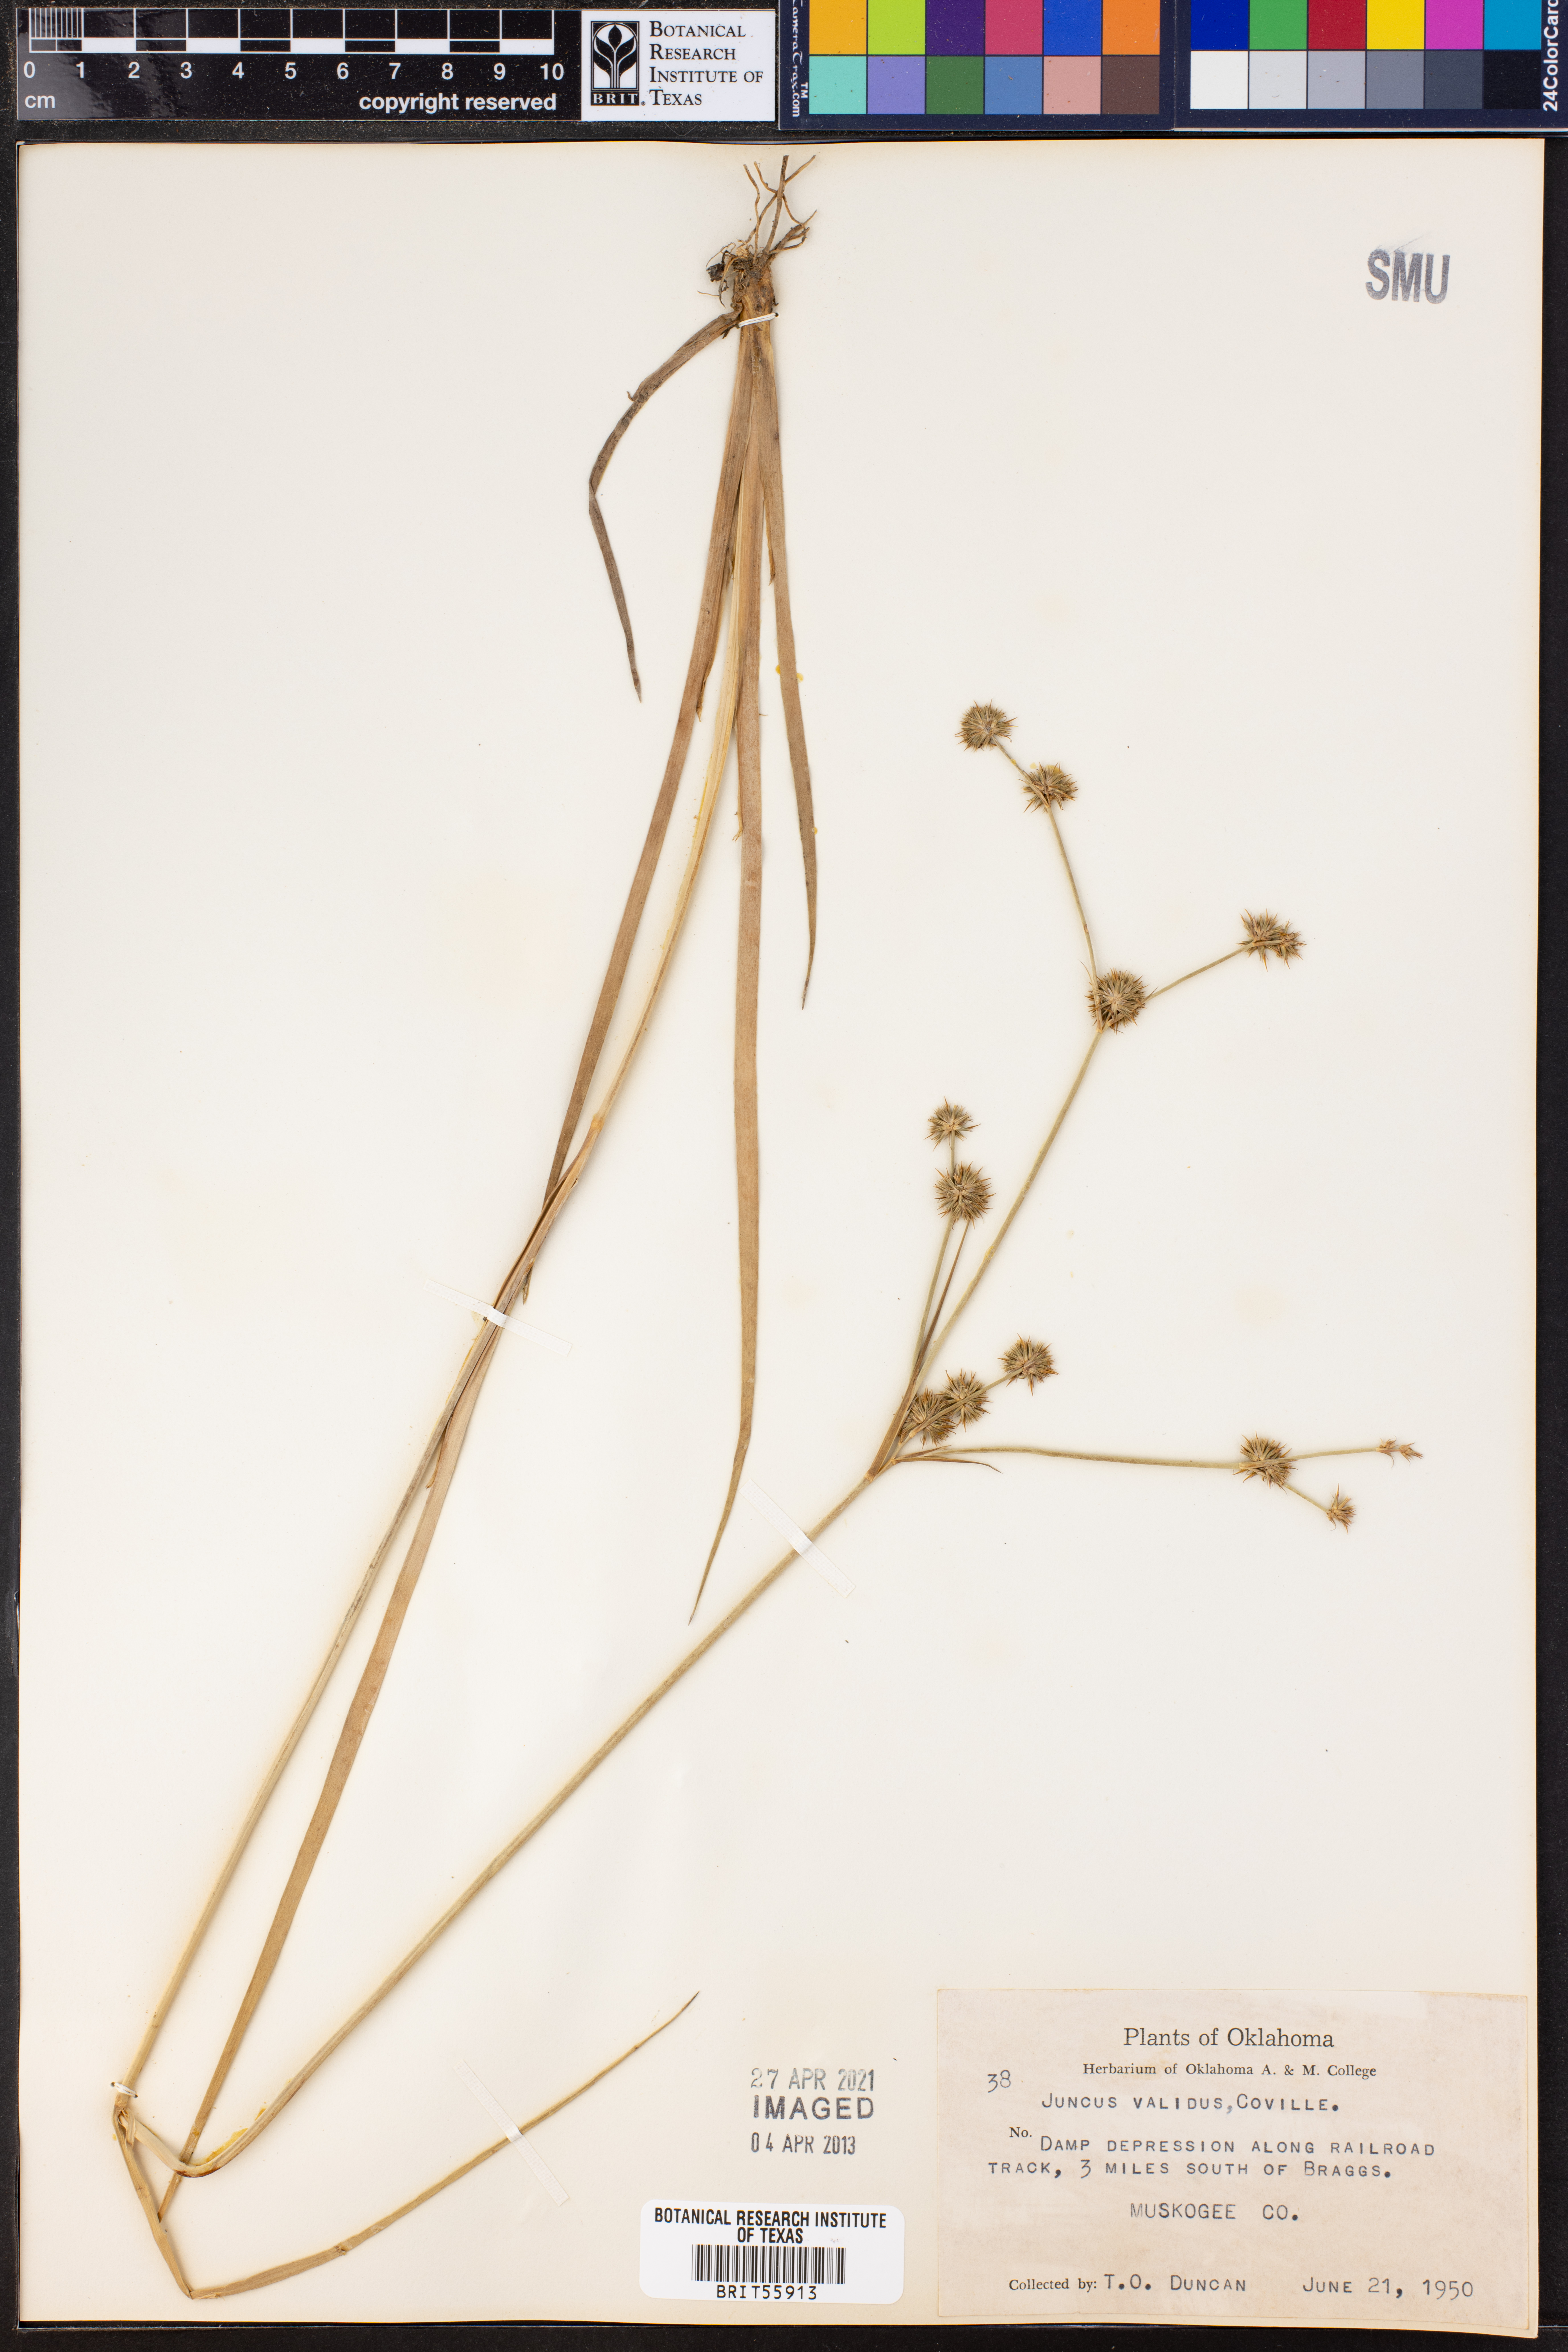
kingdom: Plantae
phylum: Tracheophyta
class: Liliopsida
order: Poales
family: Juncaceae
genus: Juncus
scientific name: Juncus validus
